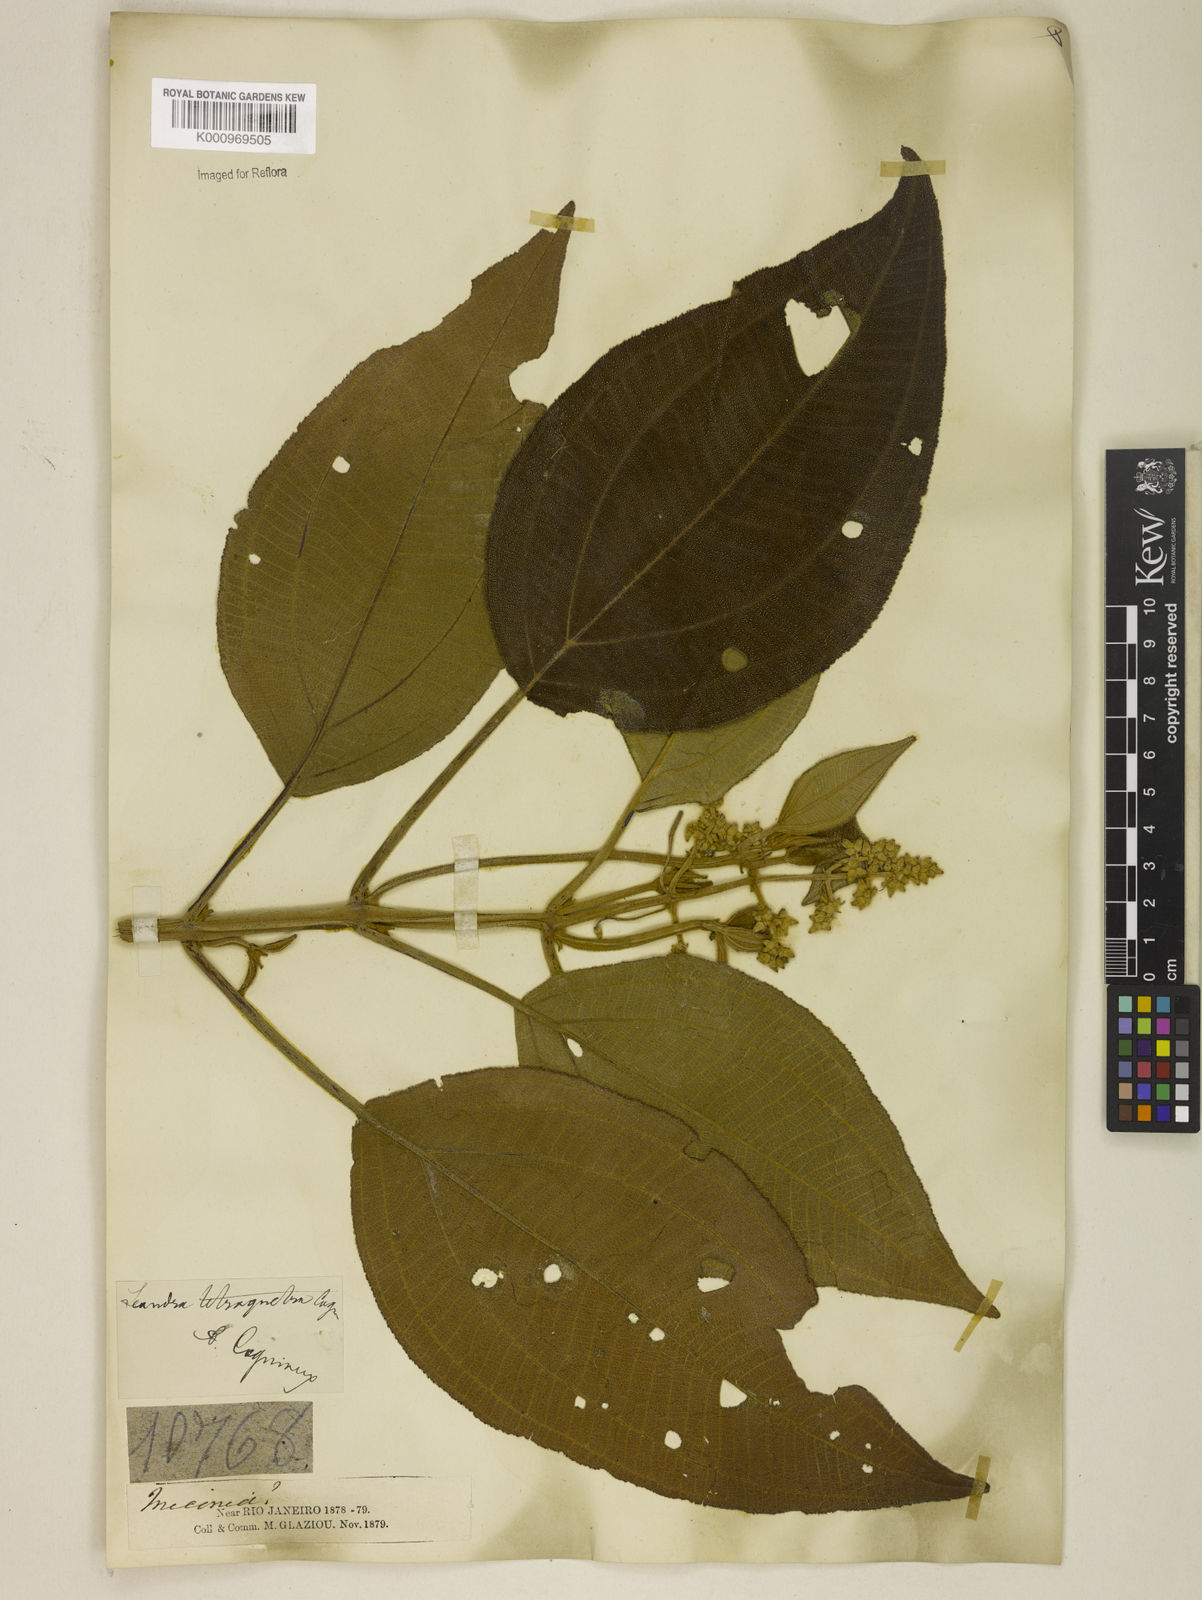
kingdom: Plantae
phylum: Tracheophyta
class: Magnoliopsida
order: Myrtales
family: Melastomataceae
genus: Miconia
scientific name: Miconia tetraquetra
